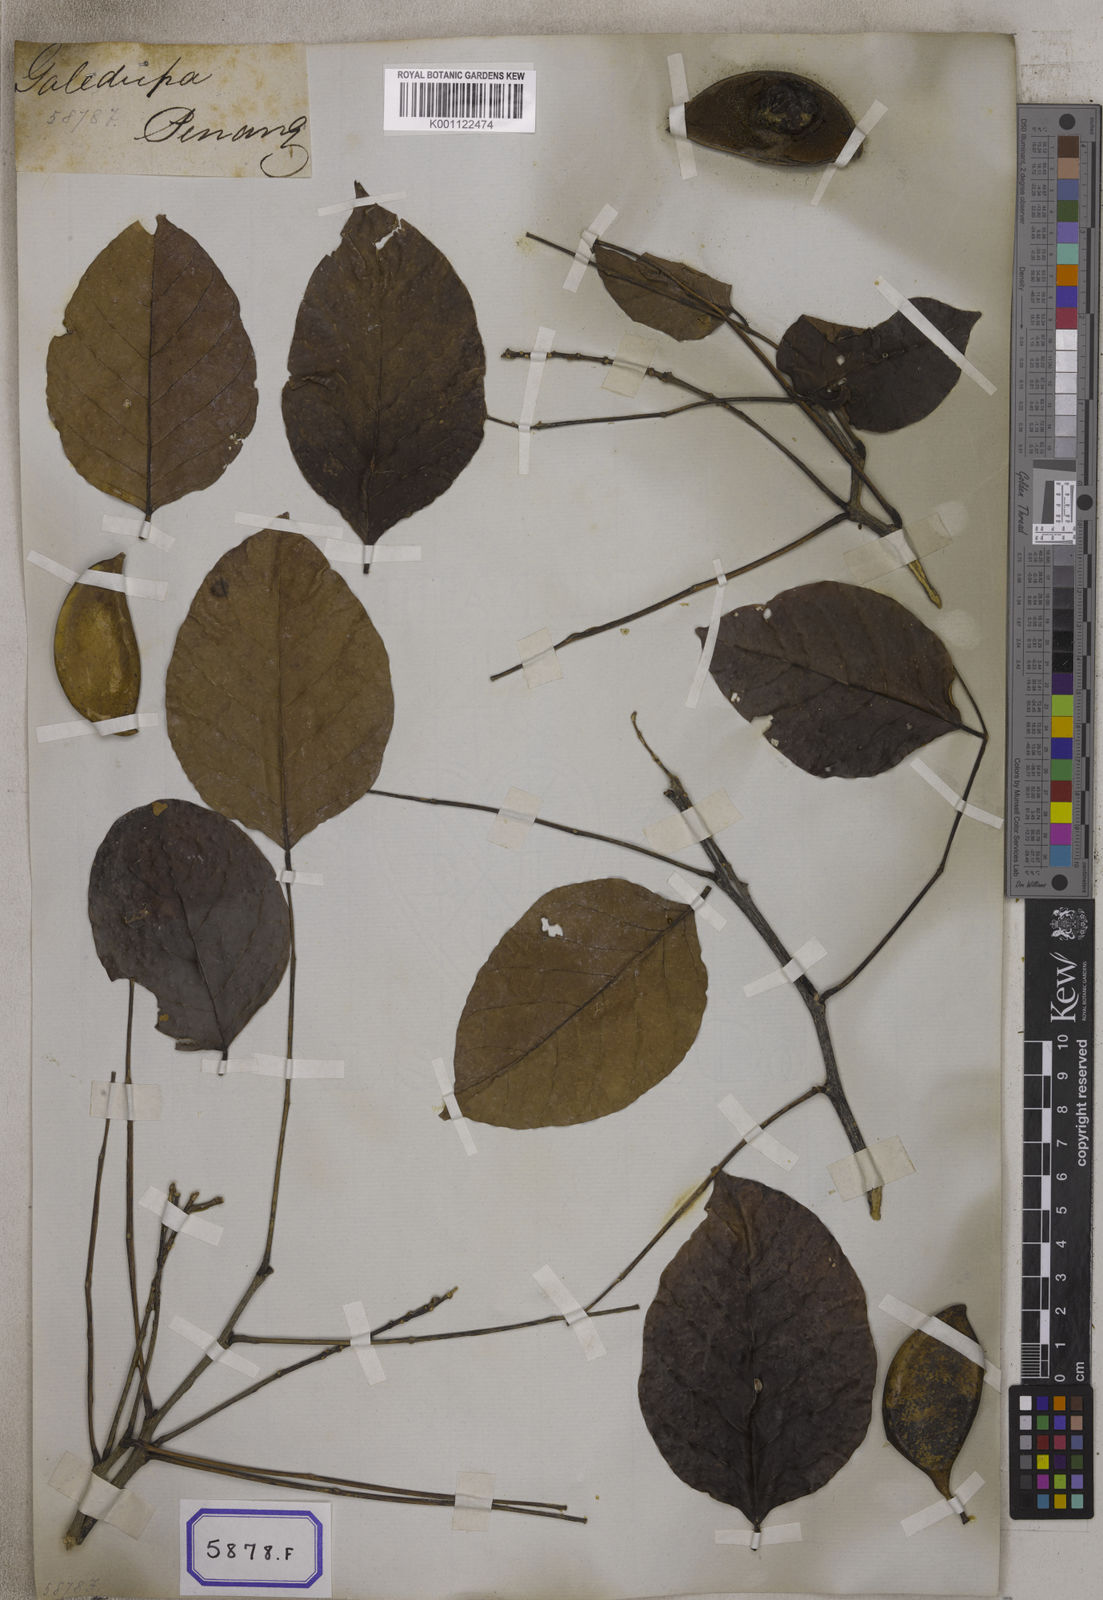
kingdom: Plantae
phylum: Tracheophyta
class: Magnoliopsida
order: Fabales
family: Fabaceae
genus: Pongamia
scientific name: Pongamia pinnata
